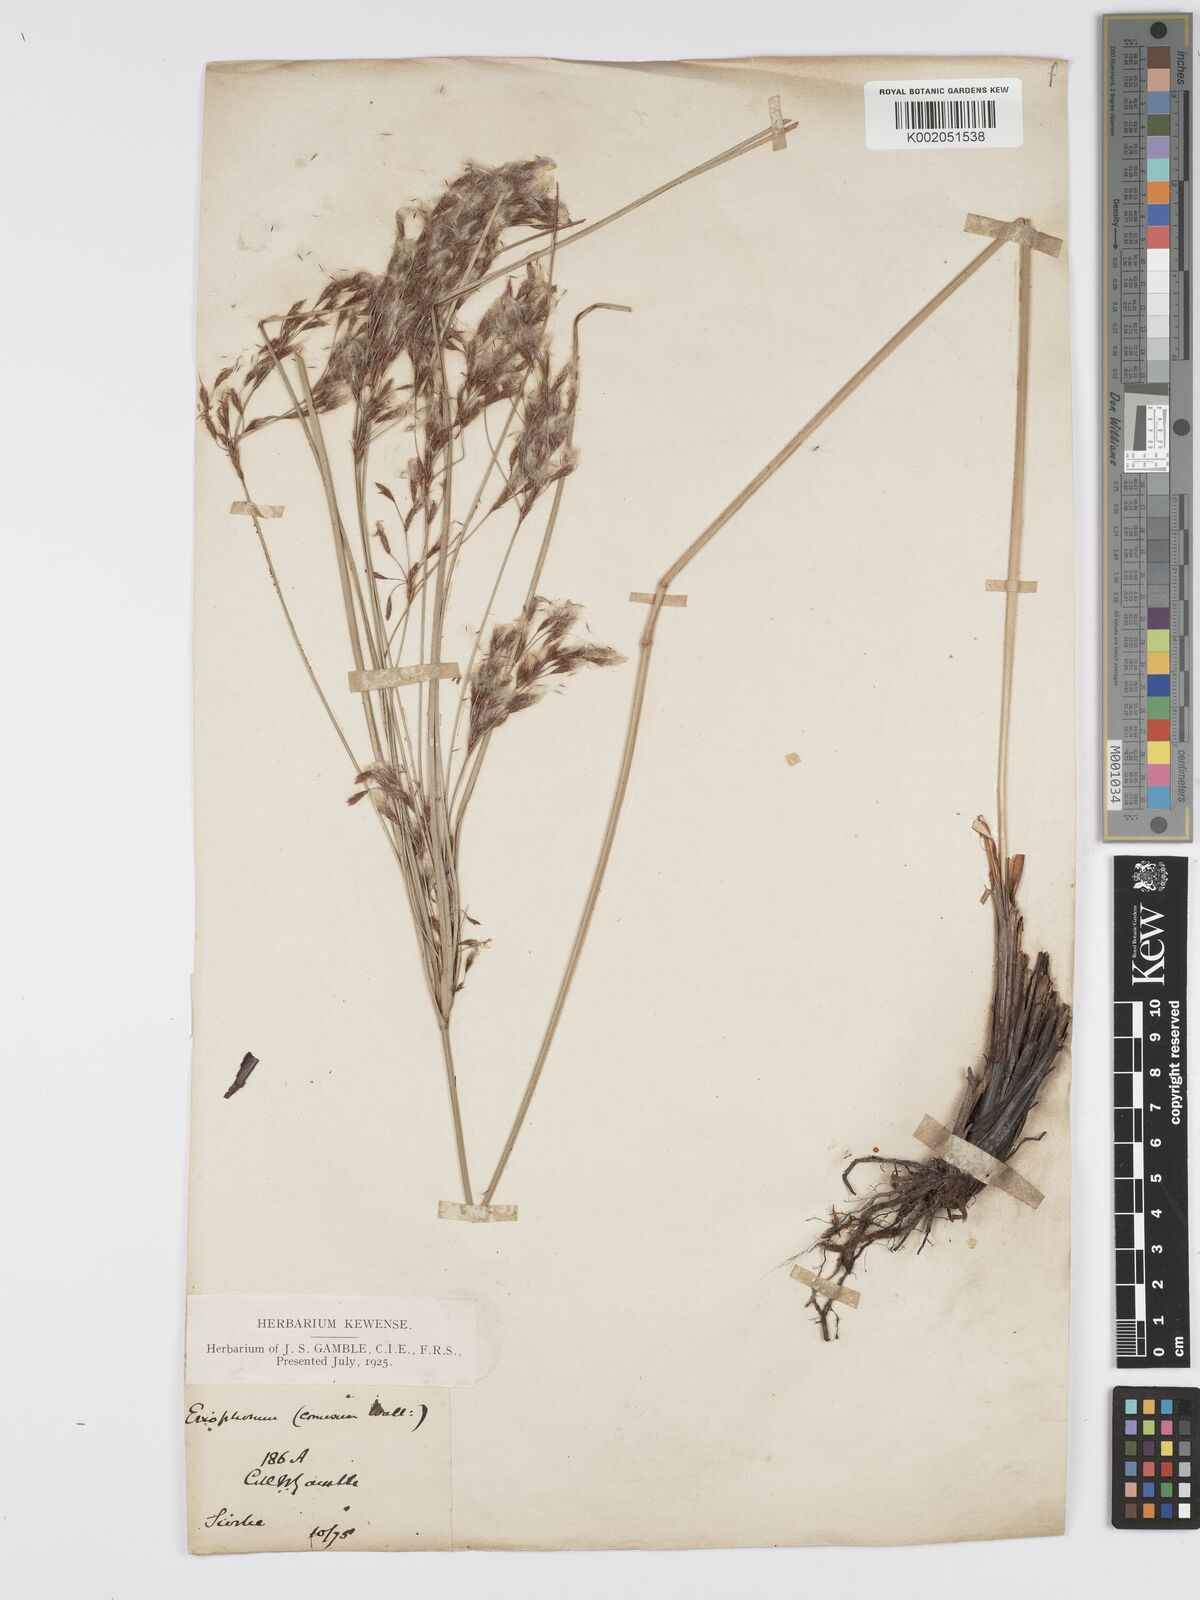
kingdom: Plantae
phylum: Tracheophyta
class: Liliopsida
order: Poales
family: Cyperaceae
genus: Erioscirpus
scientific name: Erioscirpus comosus
